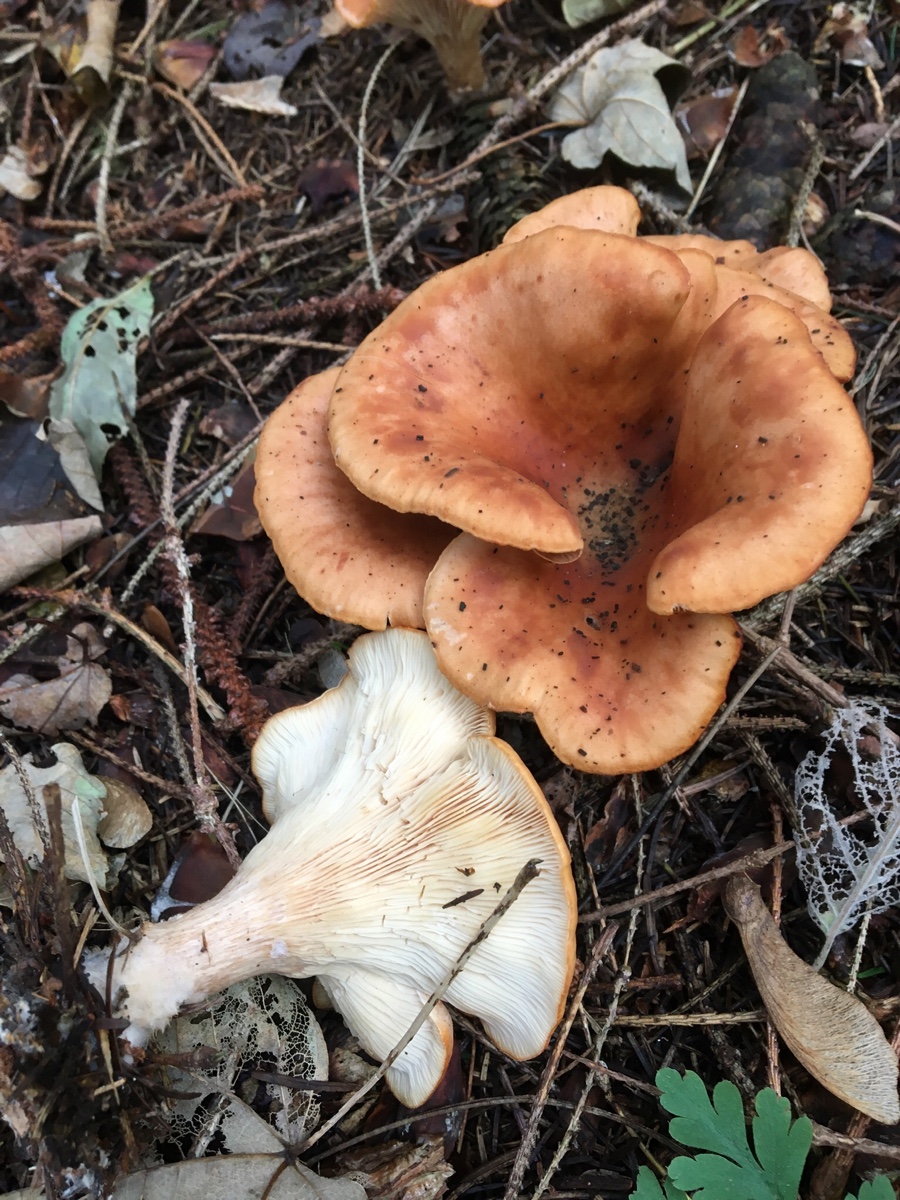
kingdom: Fungi
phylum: Basidiomycota
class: Agaricomycetes
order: Agaricales
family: Tricholomataceae
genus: Paralepista
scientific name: Paralepista flaccida
